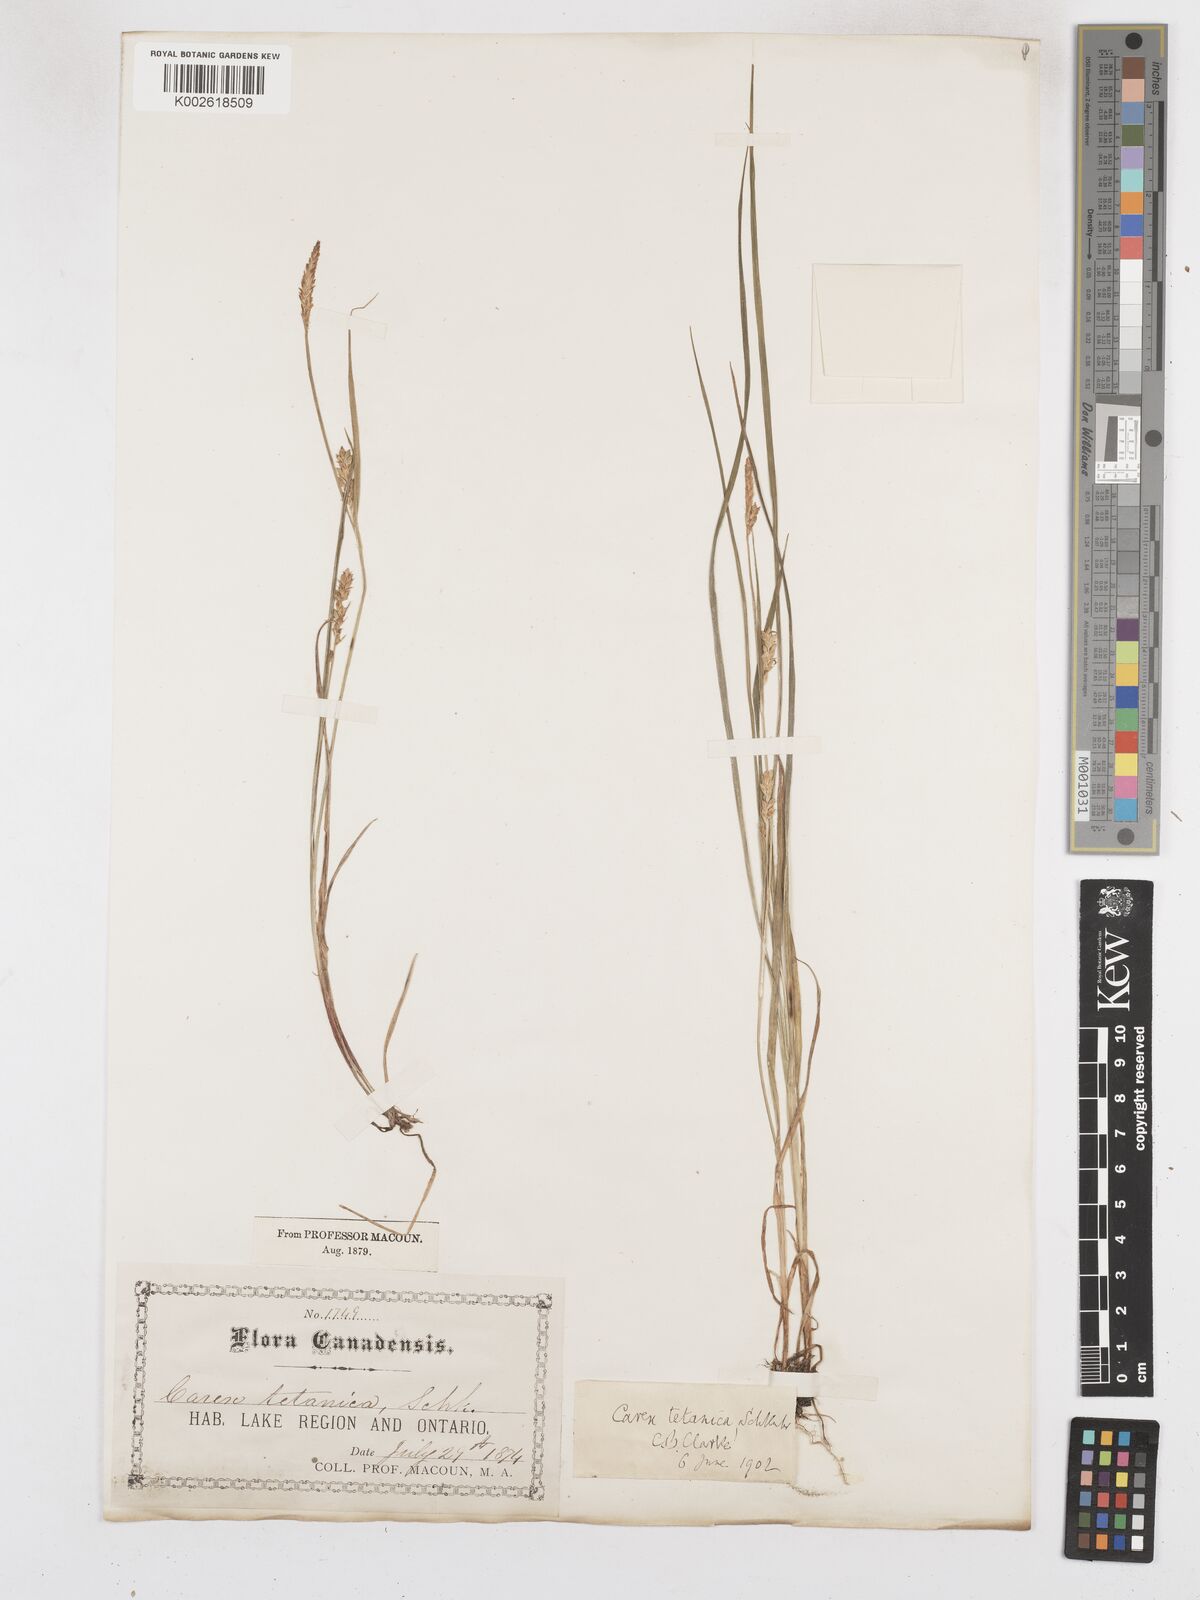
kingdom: Plantae
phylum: Tracheophyta
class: Liliopsida
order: Poales
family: Cyperaceae
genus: Carex
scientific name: Carex tetanica
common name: Rigid sedge
